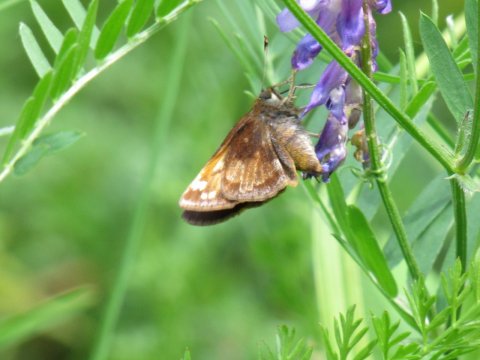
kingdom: Animalia
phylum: Arthropoda
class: Insecta
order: Lepidoptera
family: Hesperiidae
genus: Lon
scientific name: Lon hobomok
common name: Hobomok Skipper
